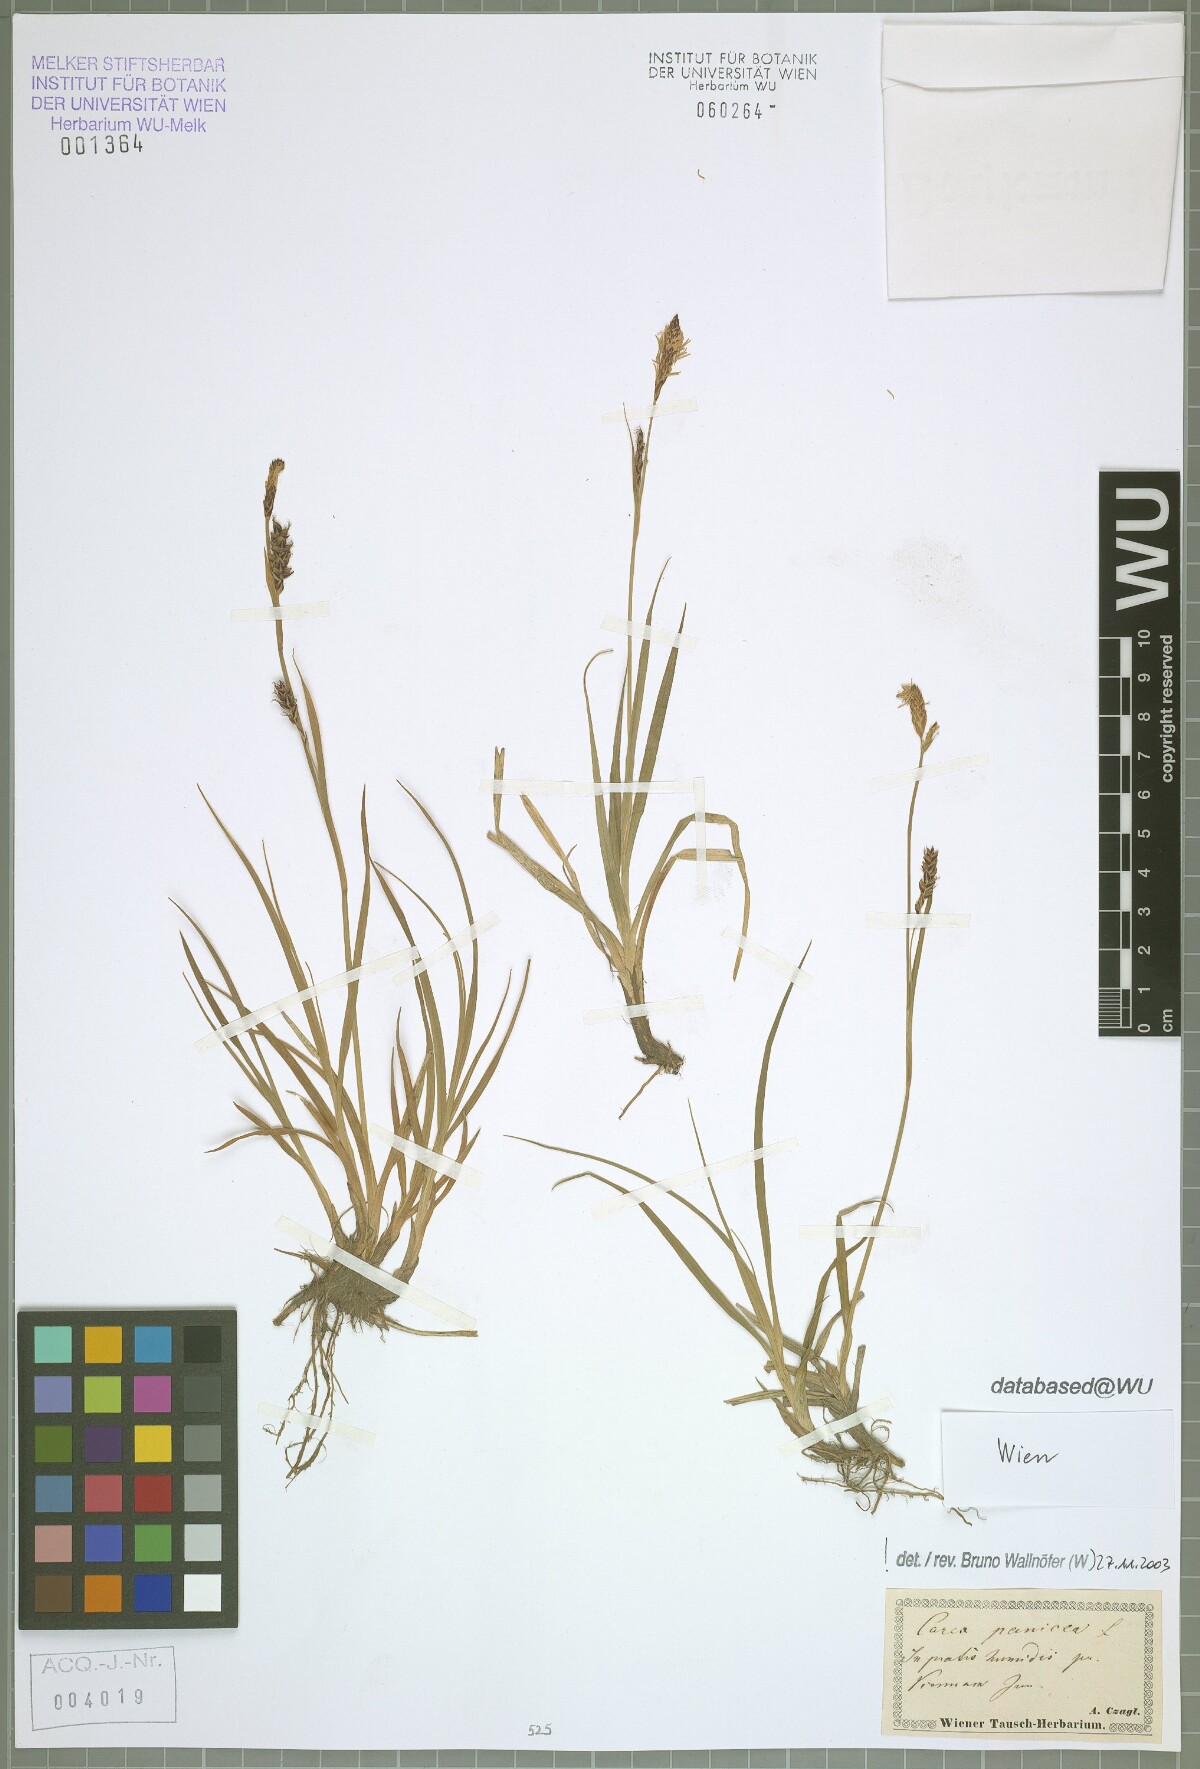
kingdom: Plantae
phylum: Tracheophyta
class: Liliopsida
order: Poales
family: Cyperaceae
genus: Carex
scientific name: Carex panicea
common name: Carnation sedge
